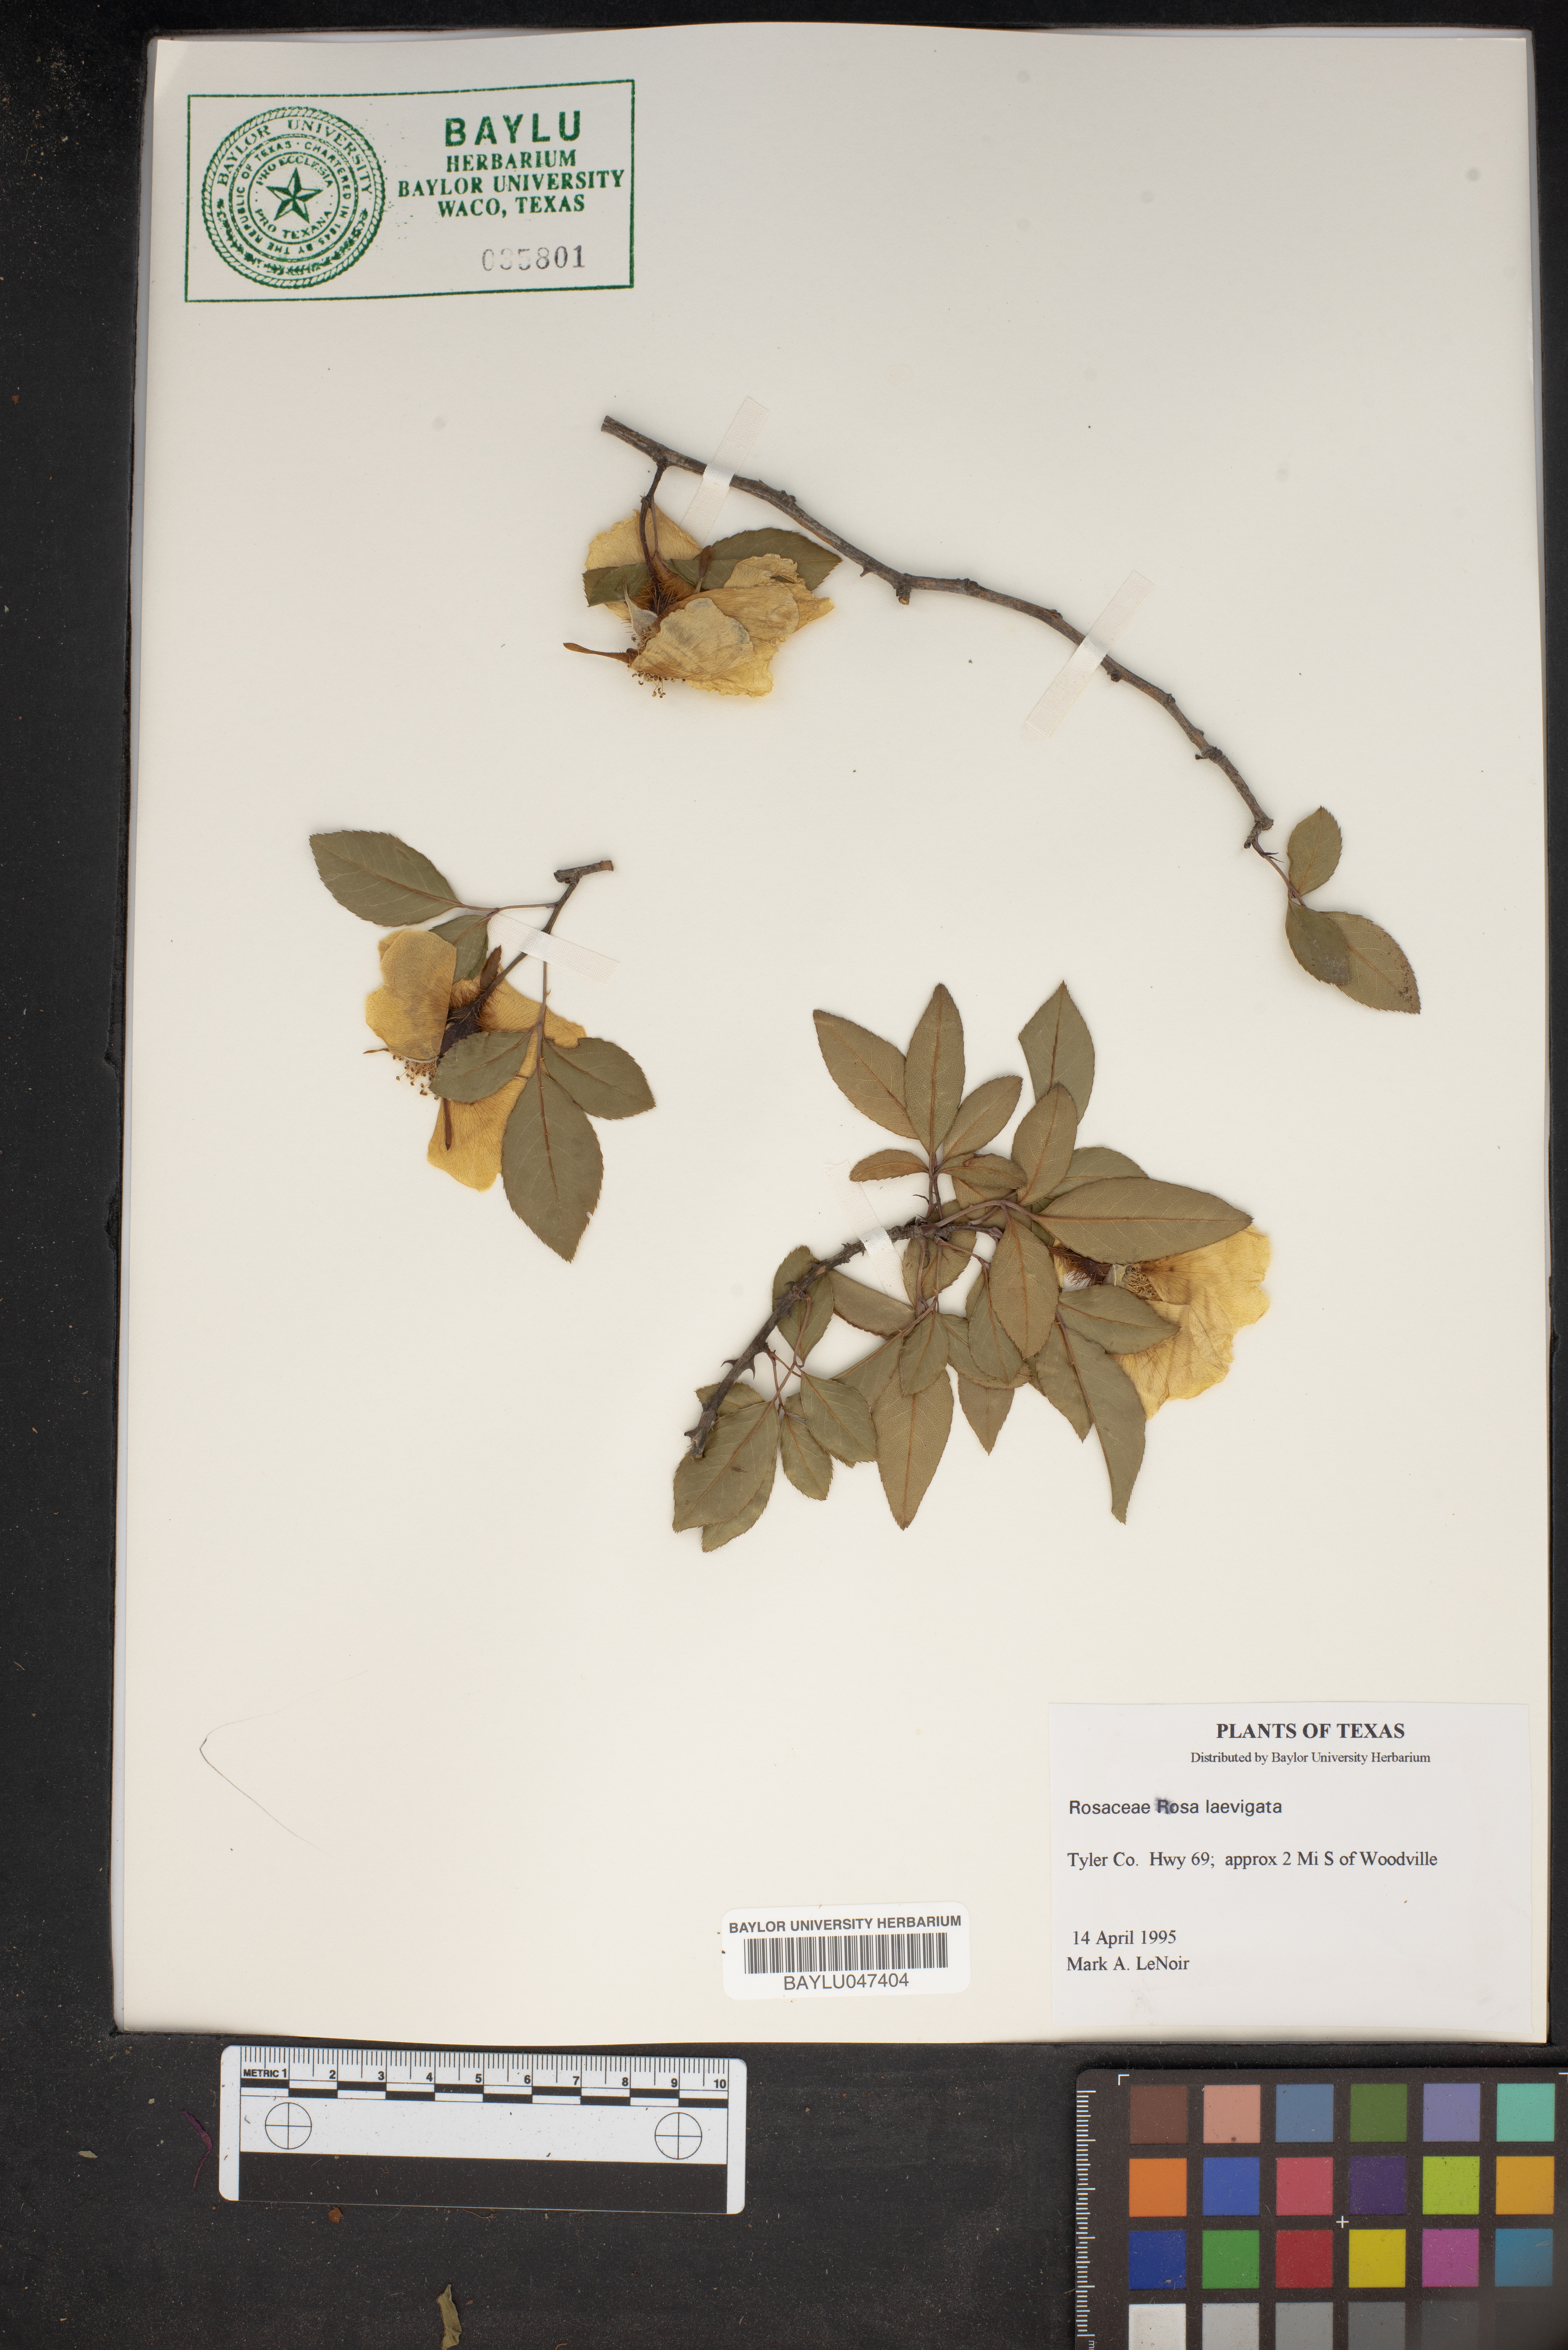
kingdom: Plantae
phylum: Tracheophyta
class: Magnoliopsida
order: Rosales
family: Rosaceae
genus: Rosa
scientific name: Rosa laevigata
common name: Cherokee rose
